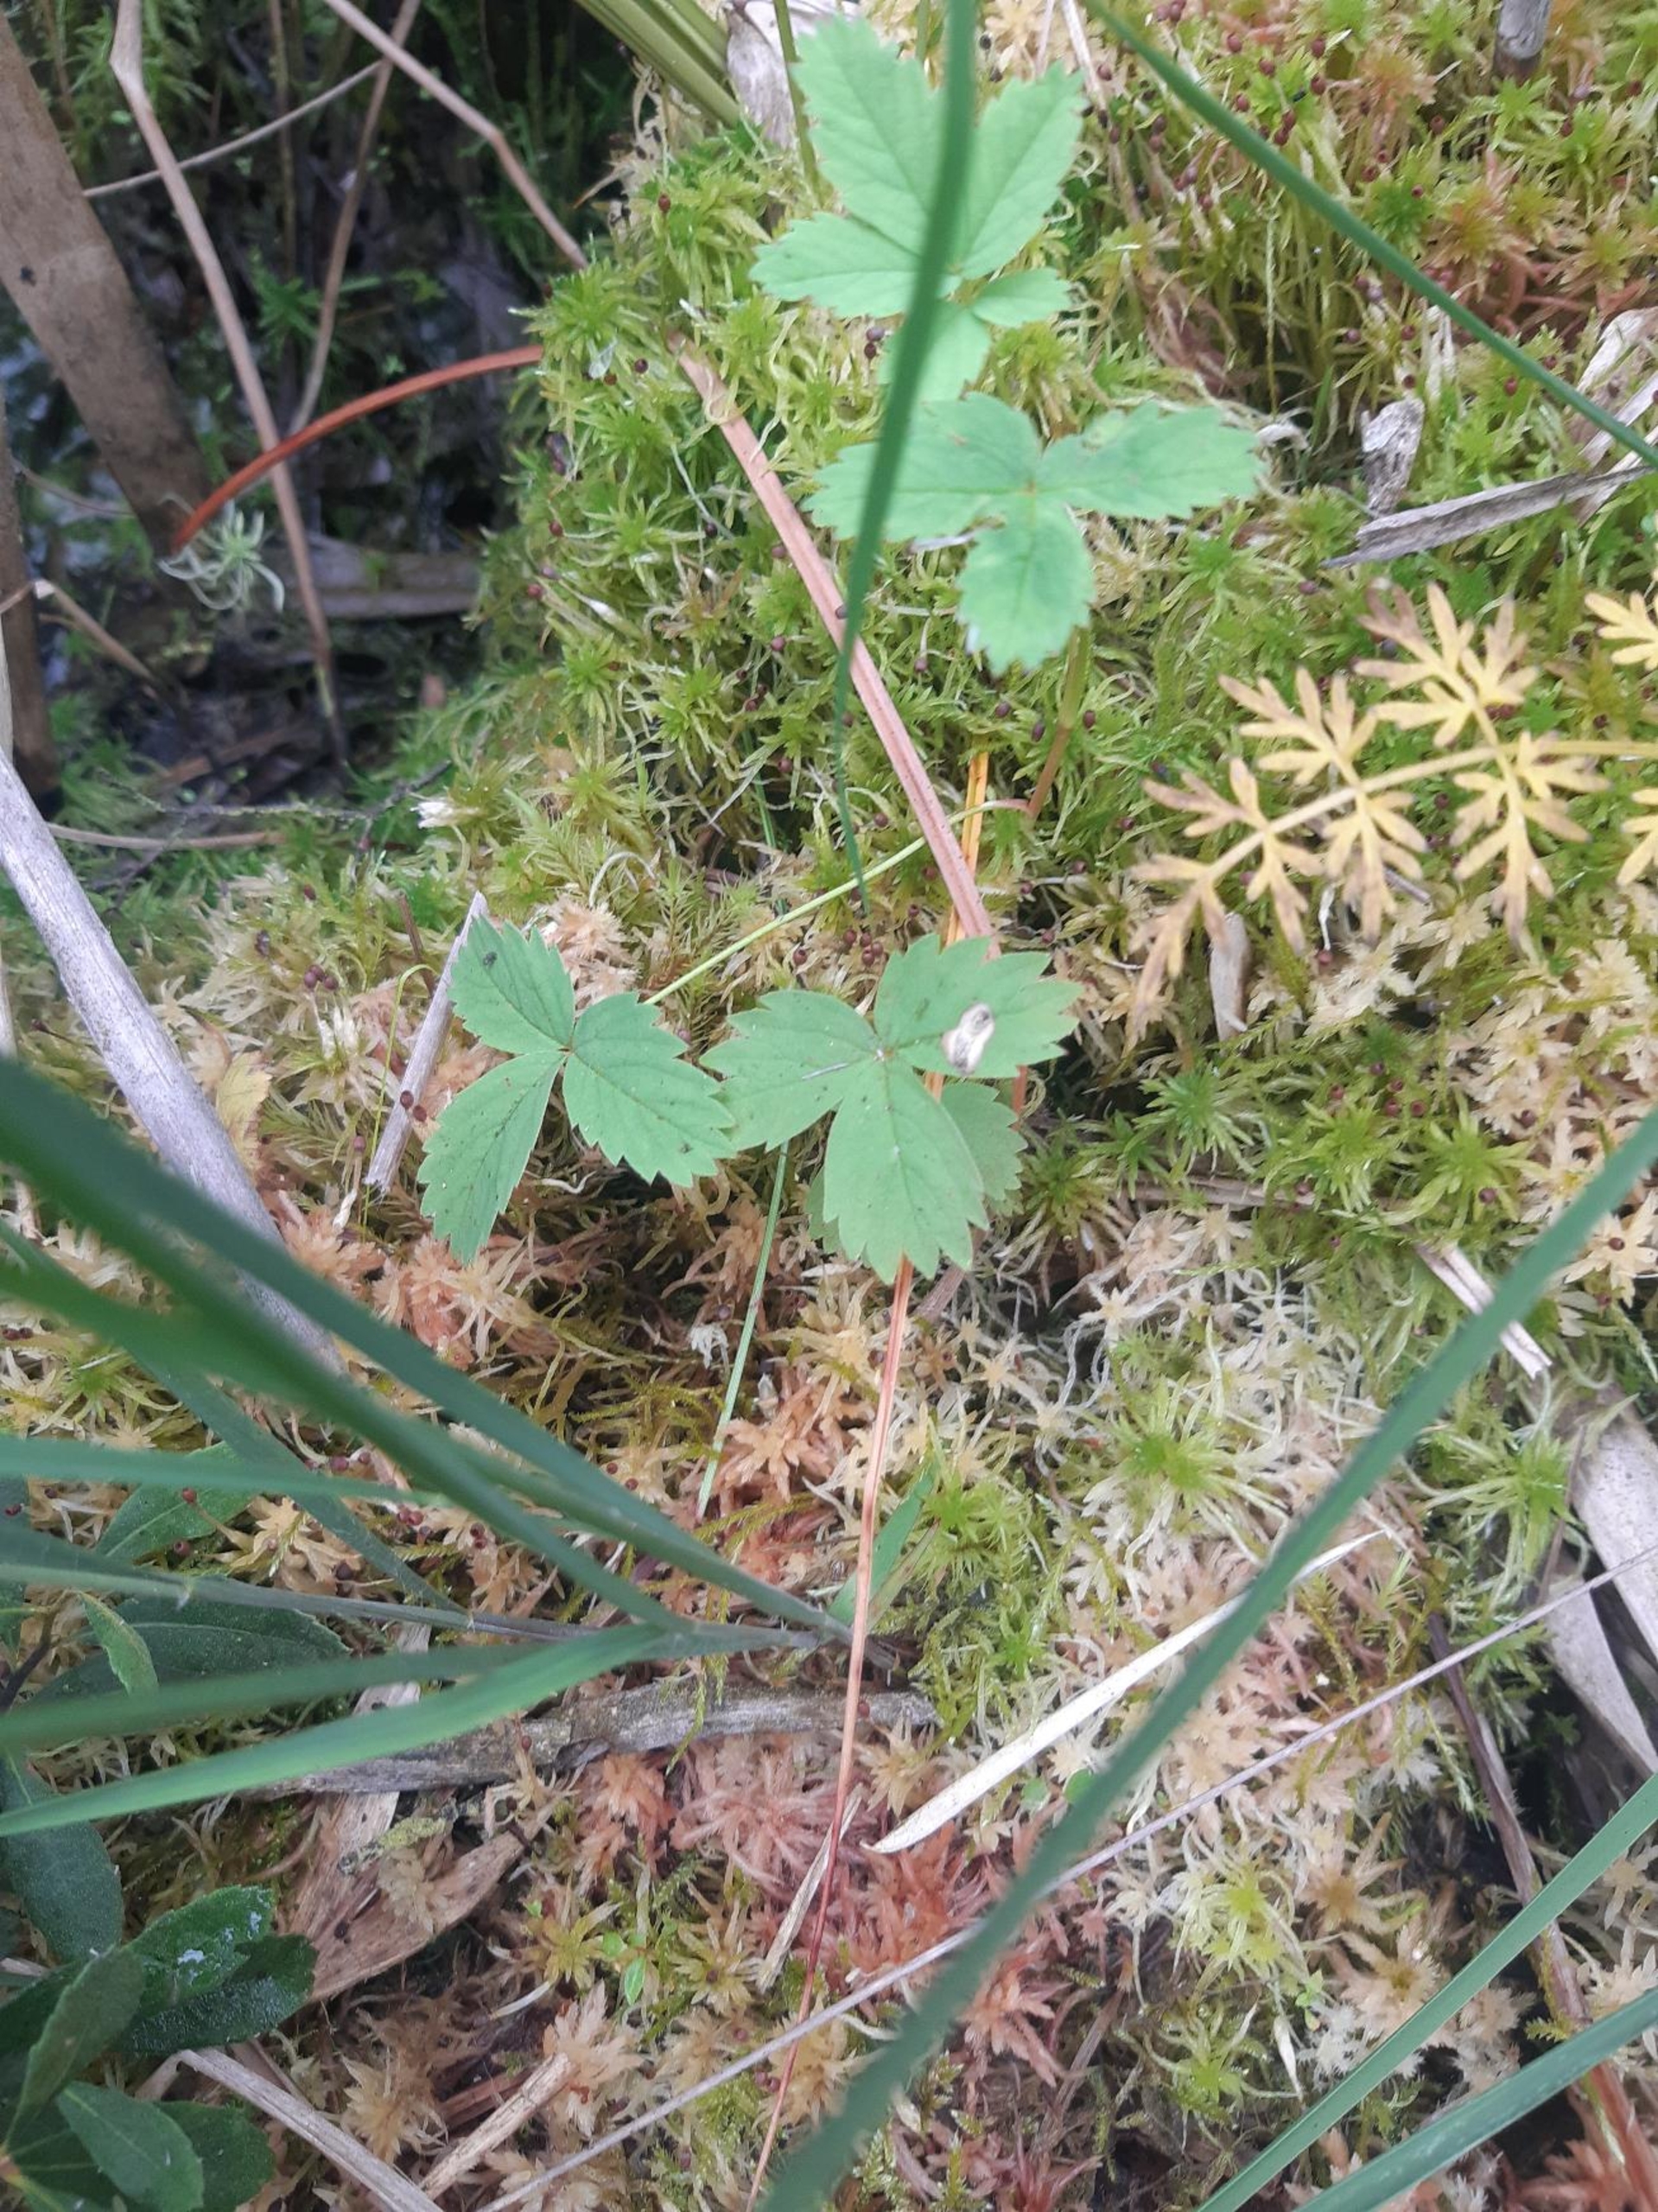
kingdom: Plantae
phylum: Tracheophyta
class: Magnoliopsida
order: Rosales
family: Rosaceae
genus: Comarum
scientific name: Comarum palustre
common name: Kragefod
